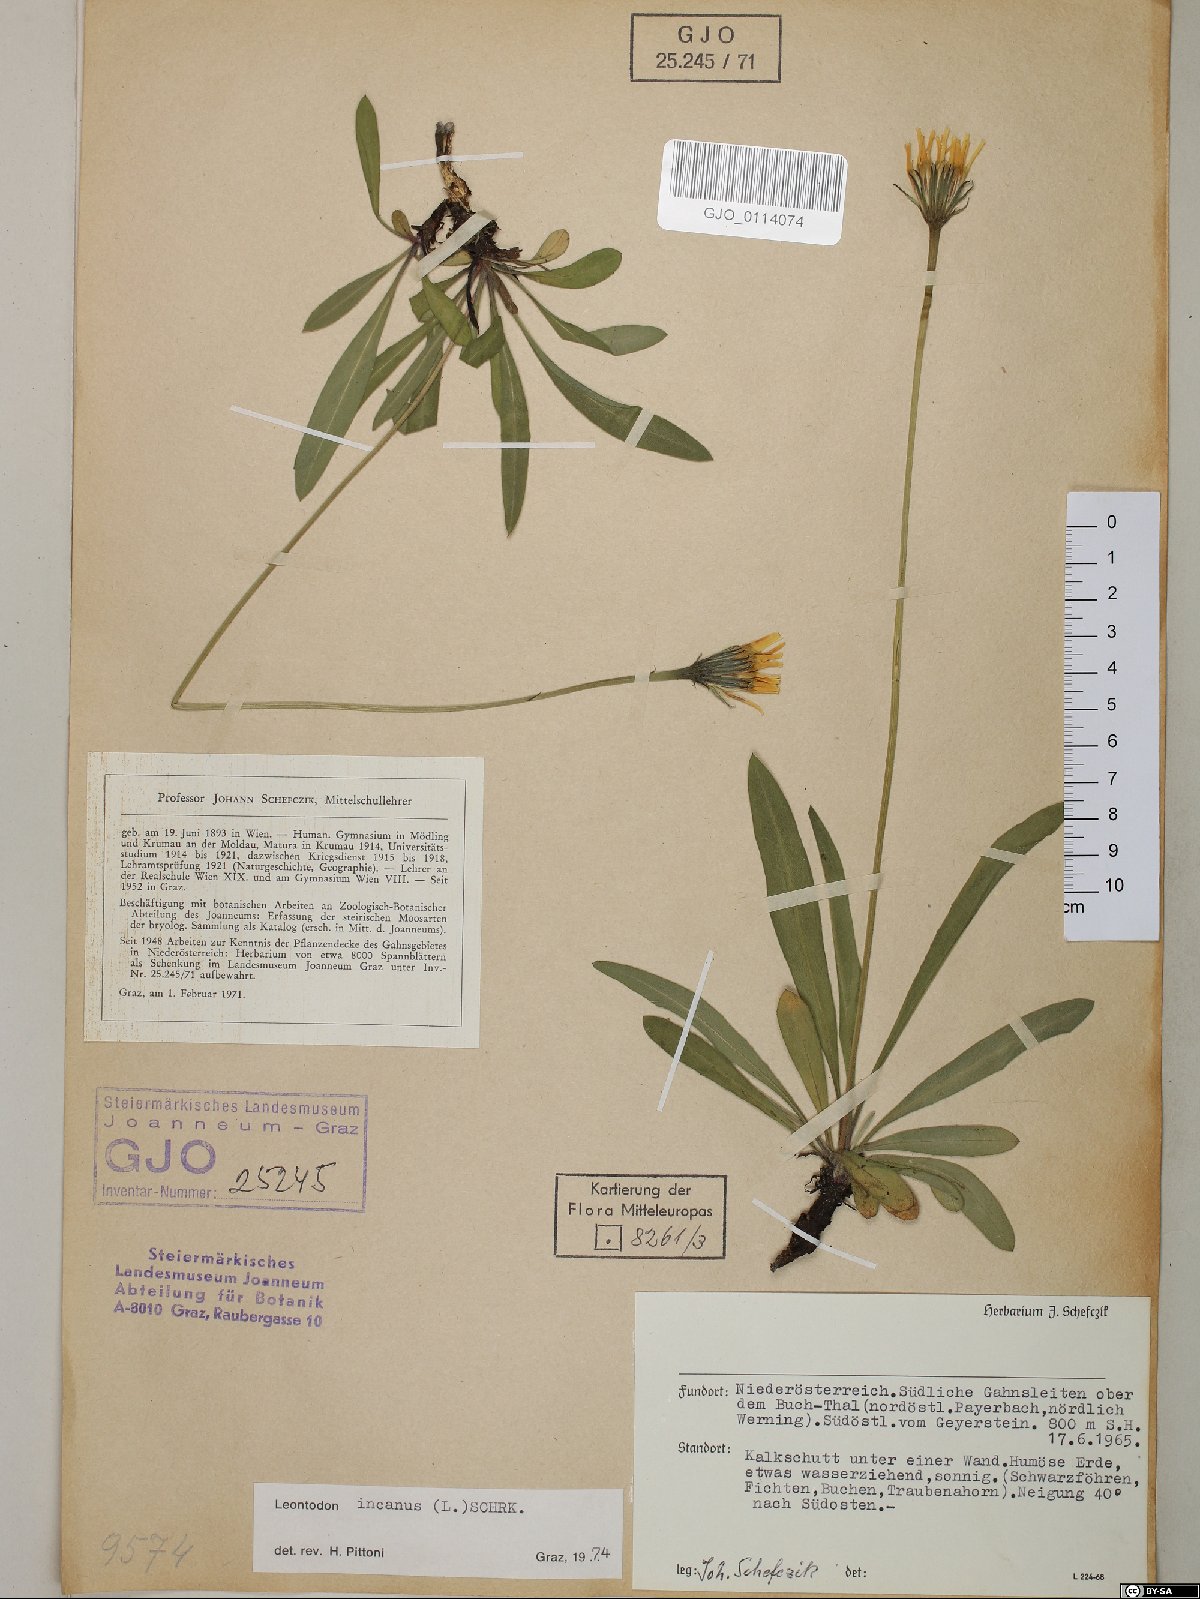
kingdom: Plantae
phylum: Tracheophyta
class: Magnoliopsida
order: Asterales
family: Asteraceae
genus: Leontodon
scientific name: Leontodon incanus
